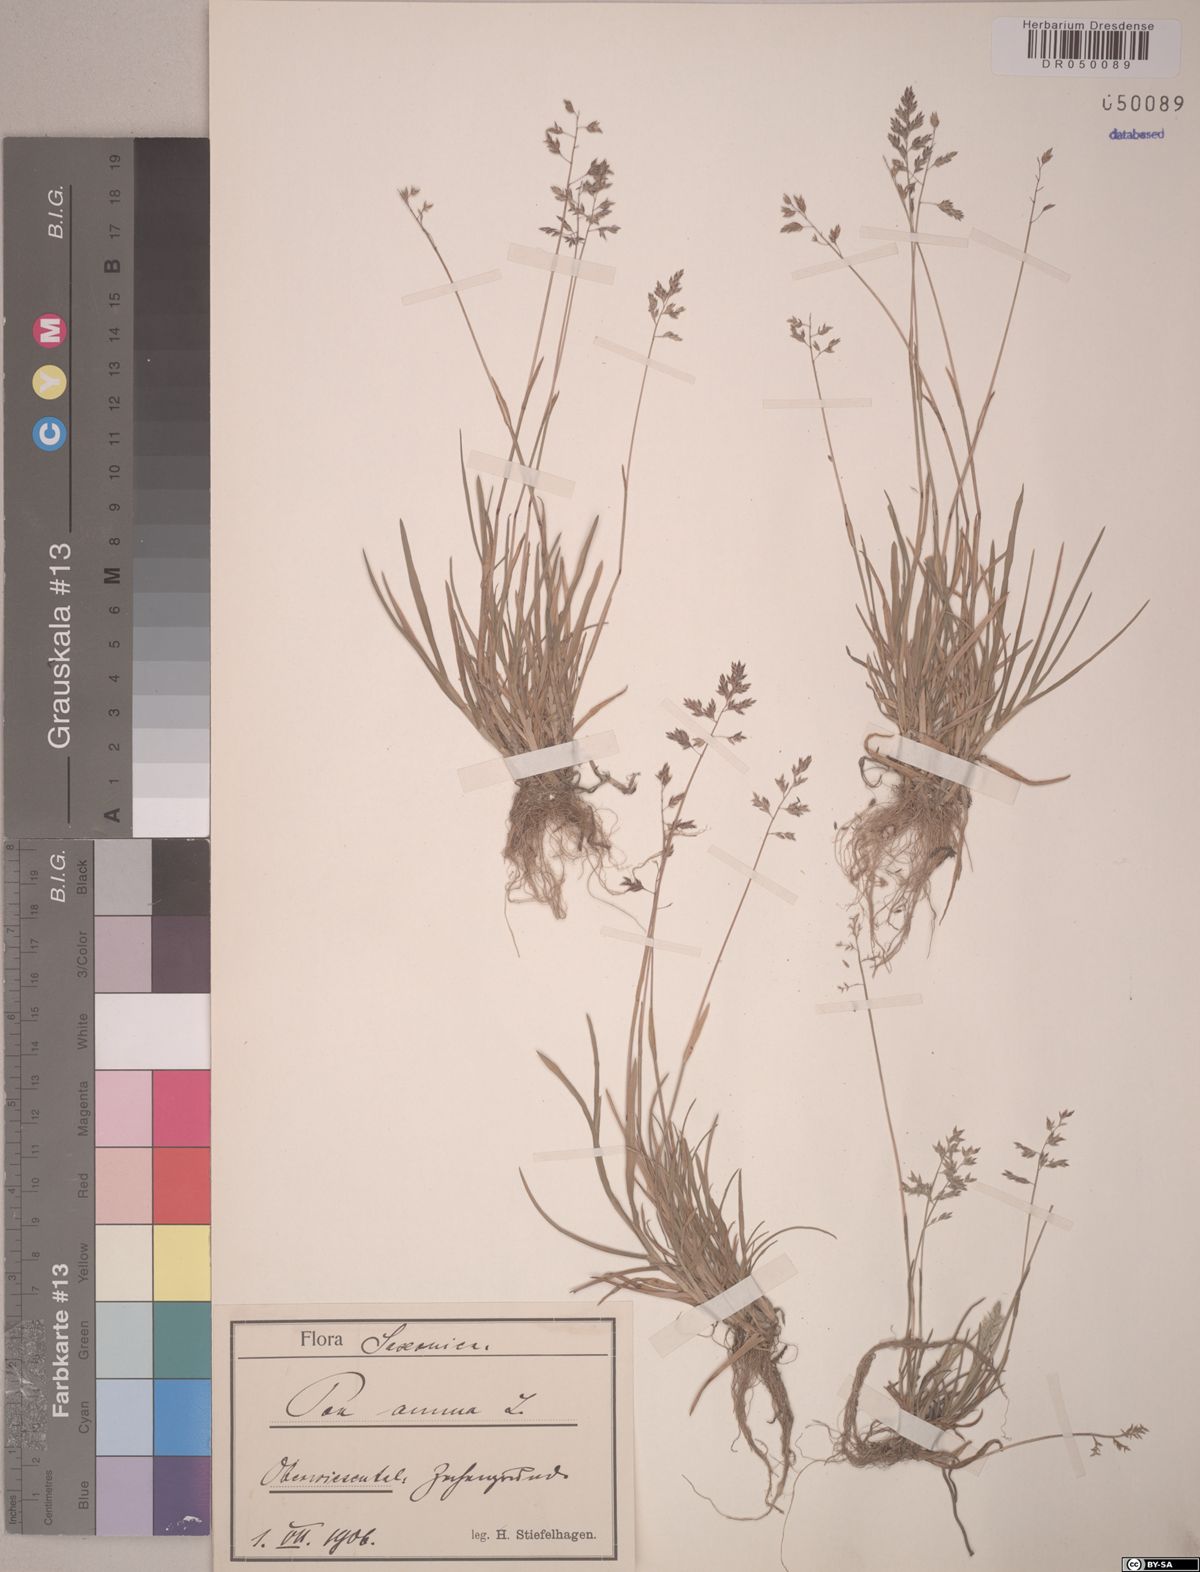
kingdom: Plantae
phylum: Tracheophyta
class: Liliopsida
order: Poales
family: Poaceae
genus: Poa
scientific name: Poa annua
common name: Annual bluegrass
